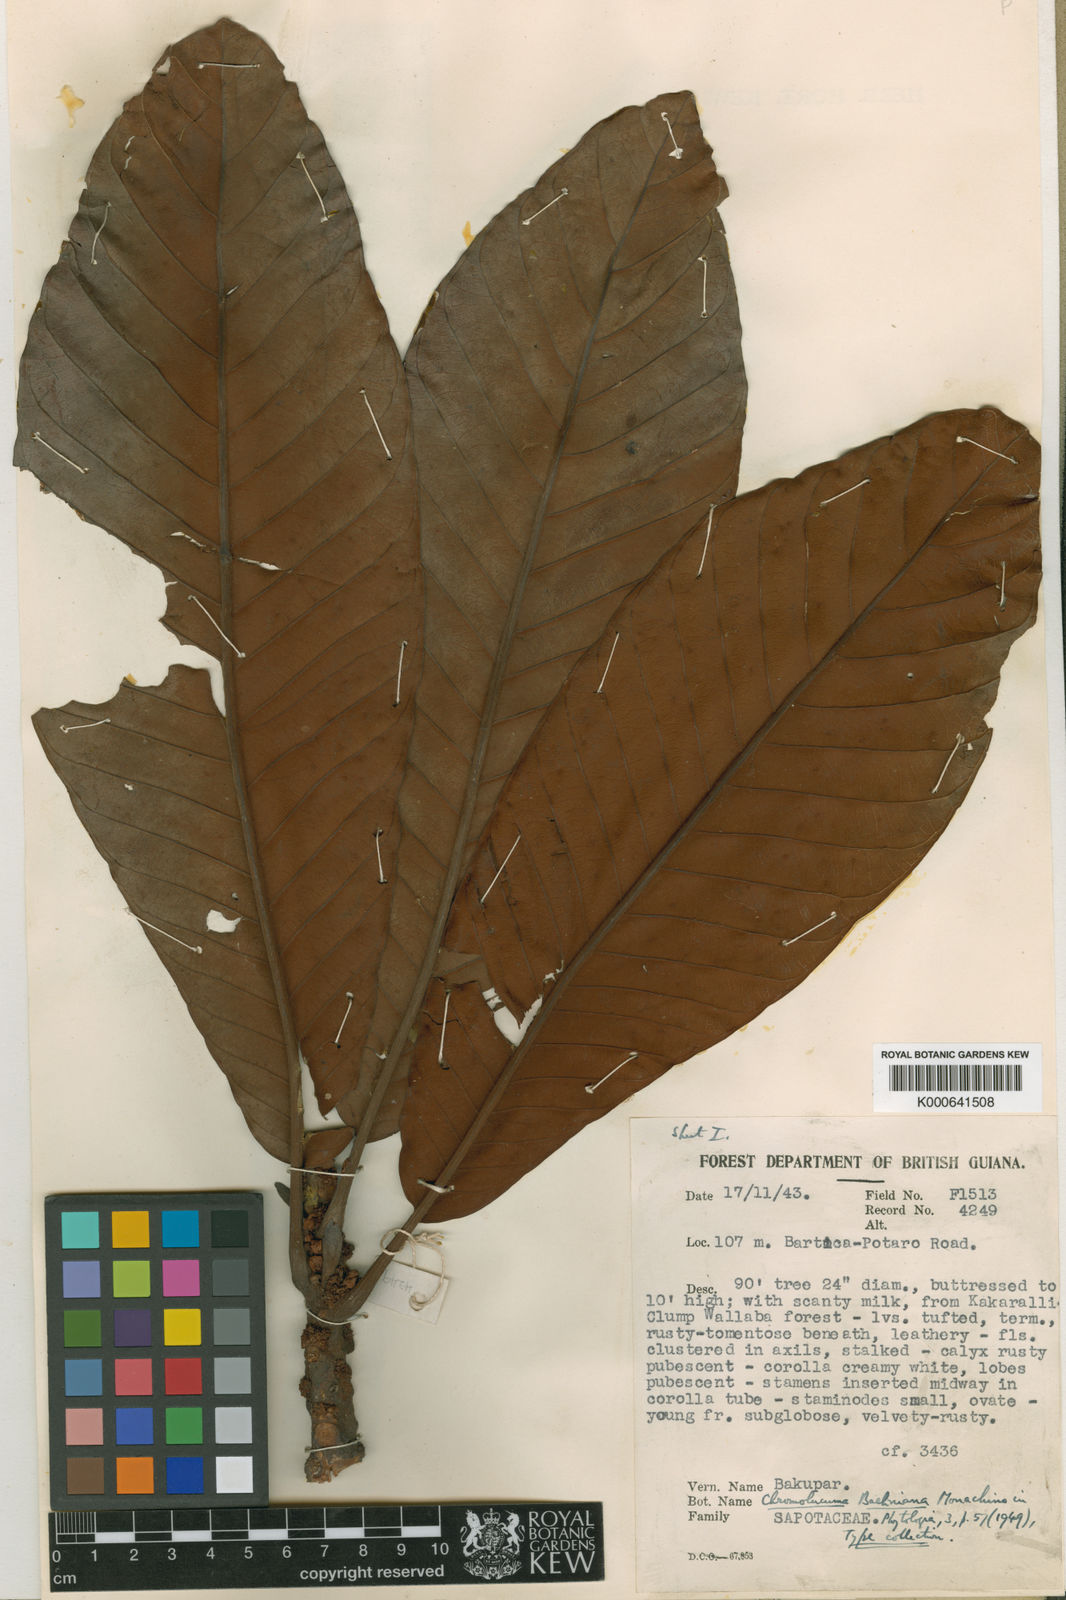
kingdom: Plantae
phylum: Tracheophyta
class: Magnoliopsida
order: Ericales
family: Sapotaceae
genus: Chromolucuma
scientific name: Chromolucuma baehniana
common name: Baehni chromolucuma
